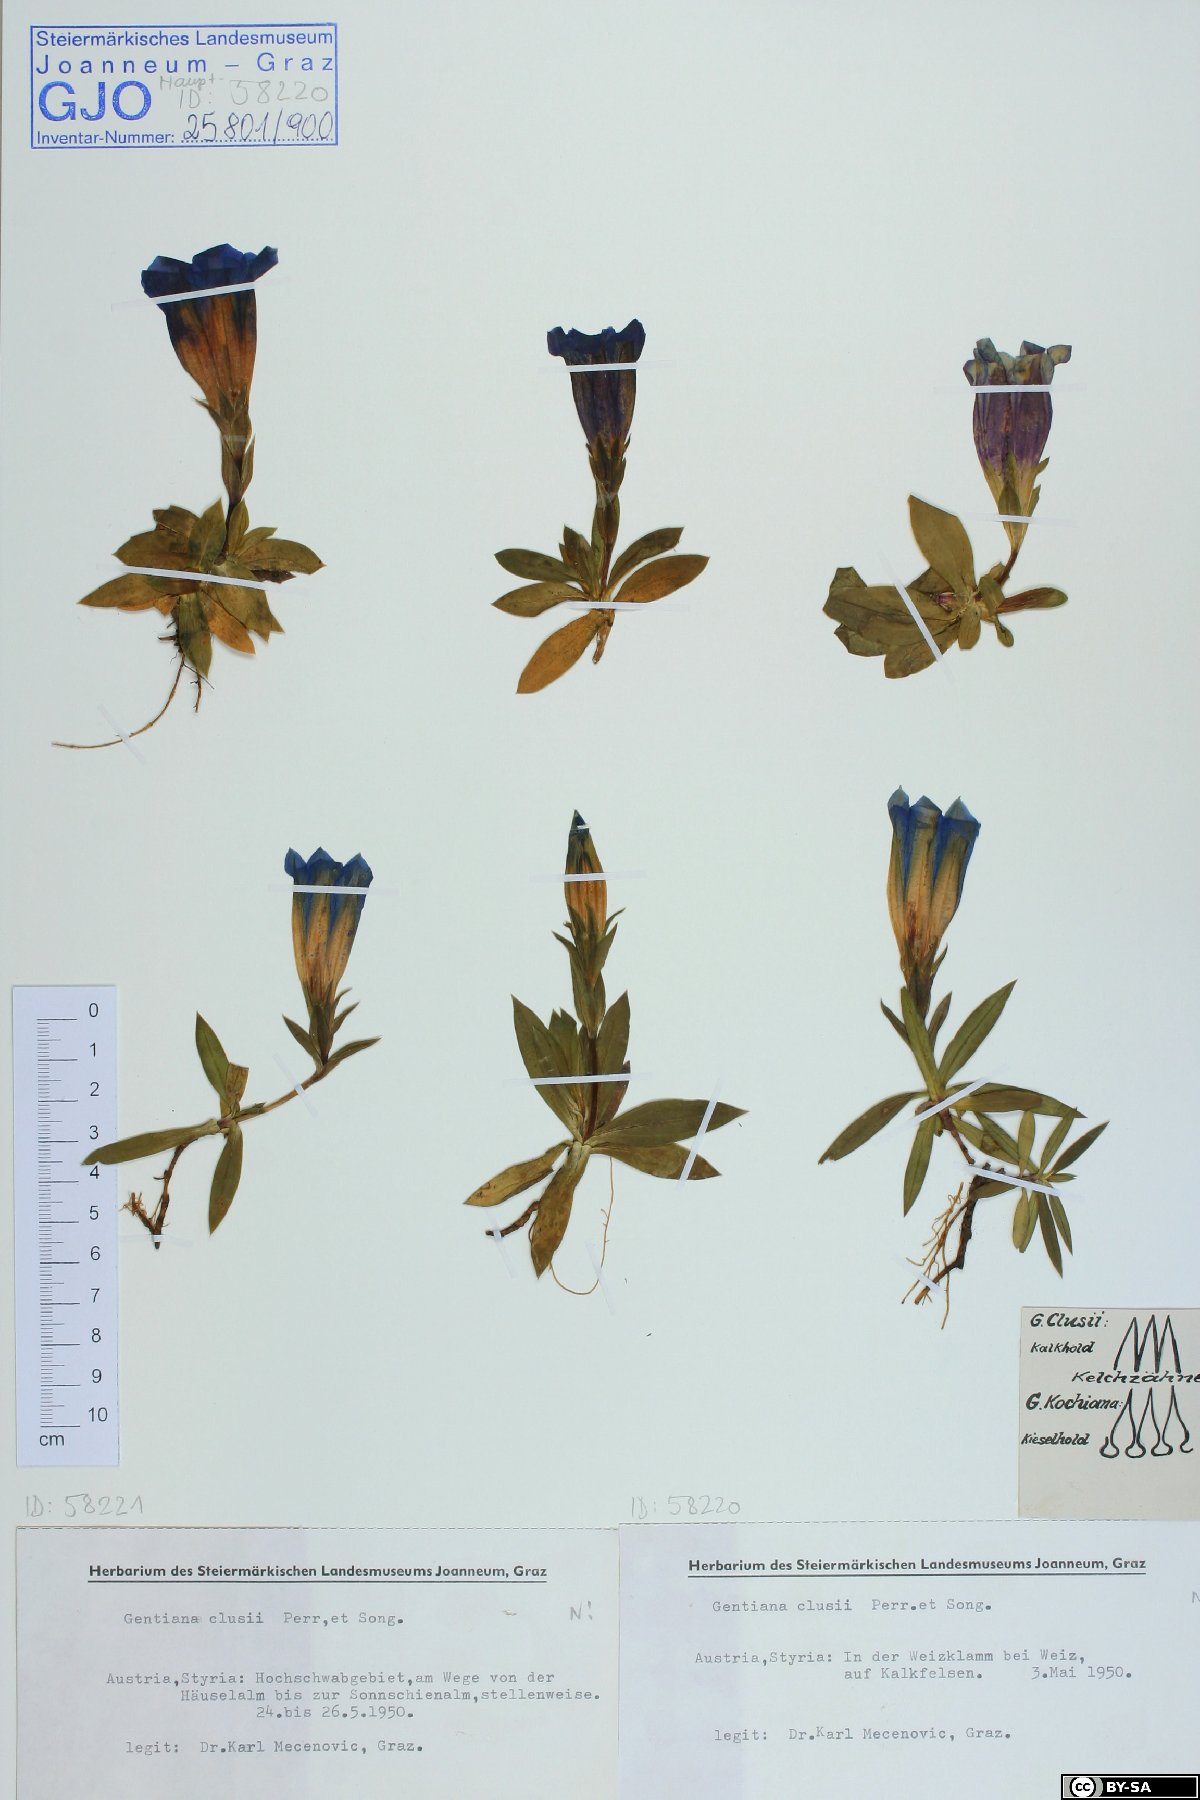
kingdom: Plantae
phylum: Tracheophyta
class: Magnoliopsida
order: Gentianales
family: Gentianaceae
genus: Gentiana
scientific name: Gentiana clusii
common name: Trumpet gentian
